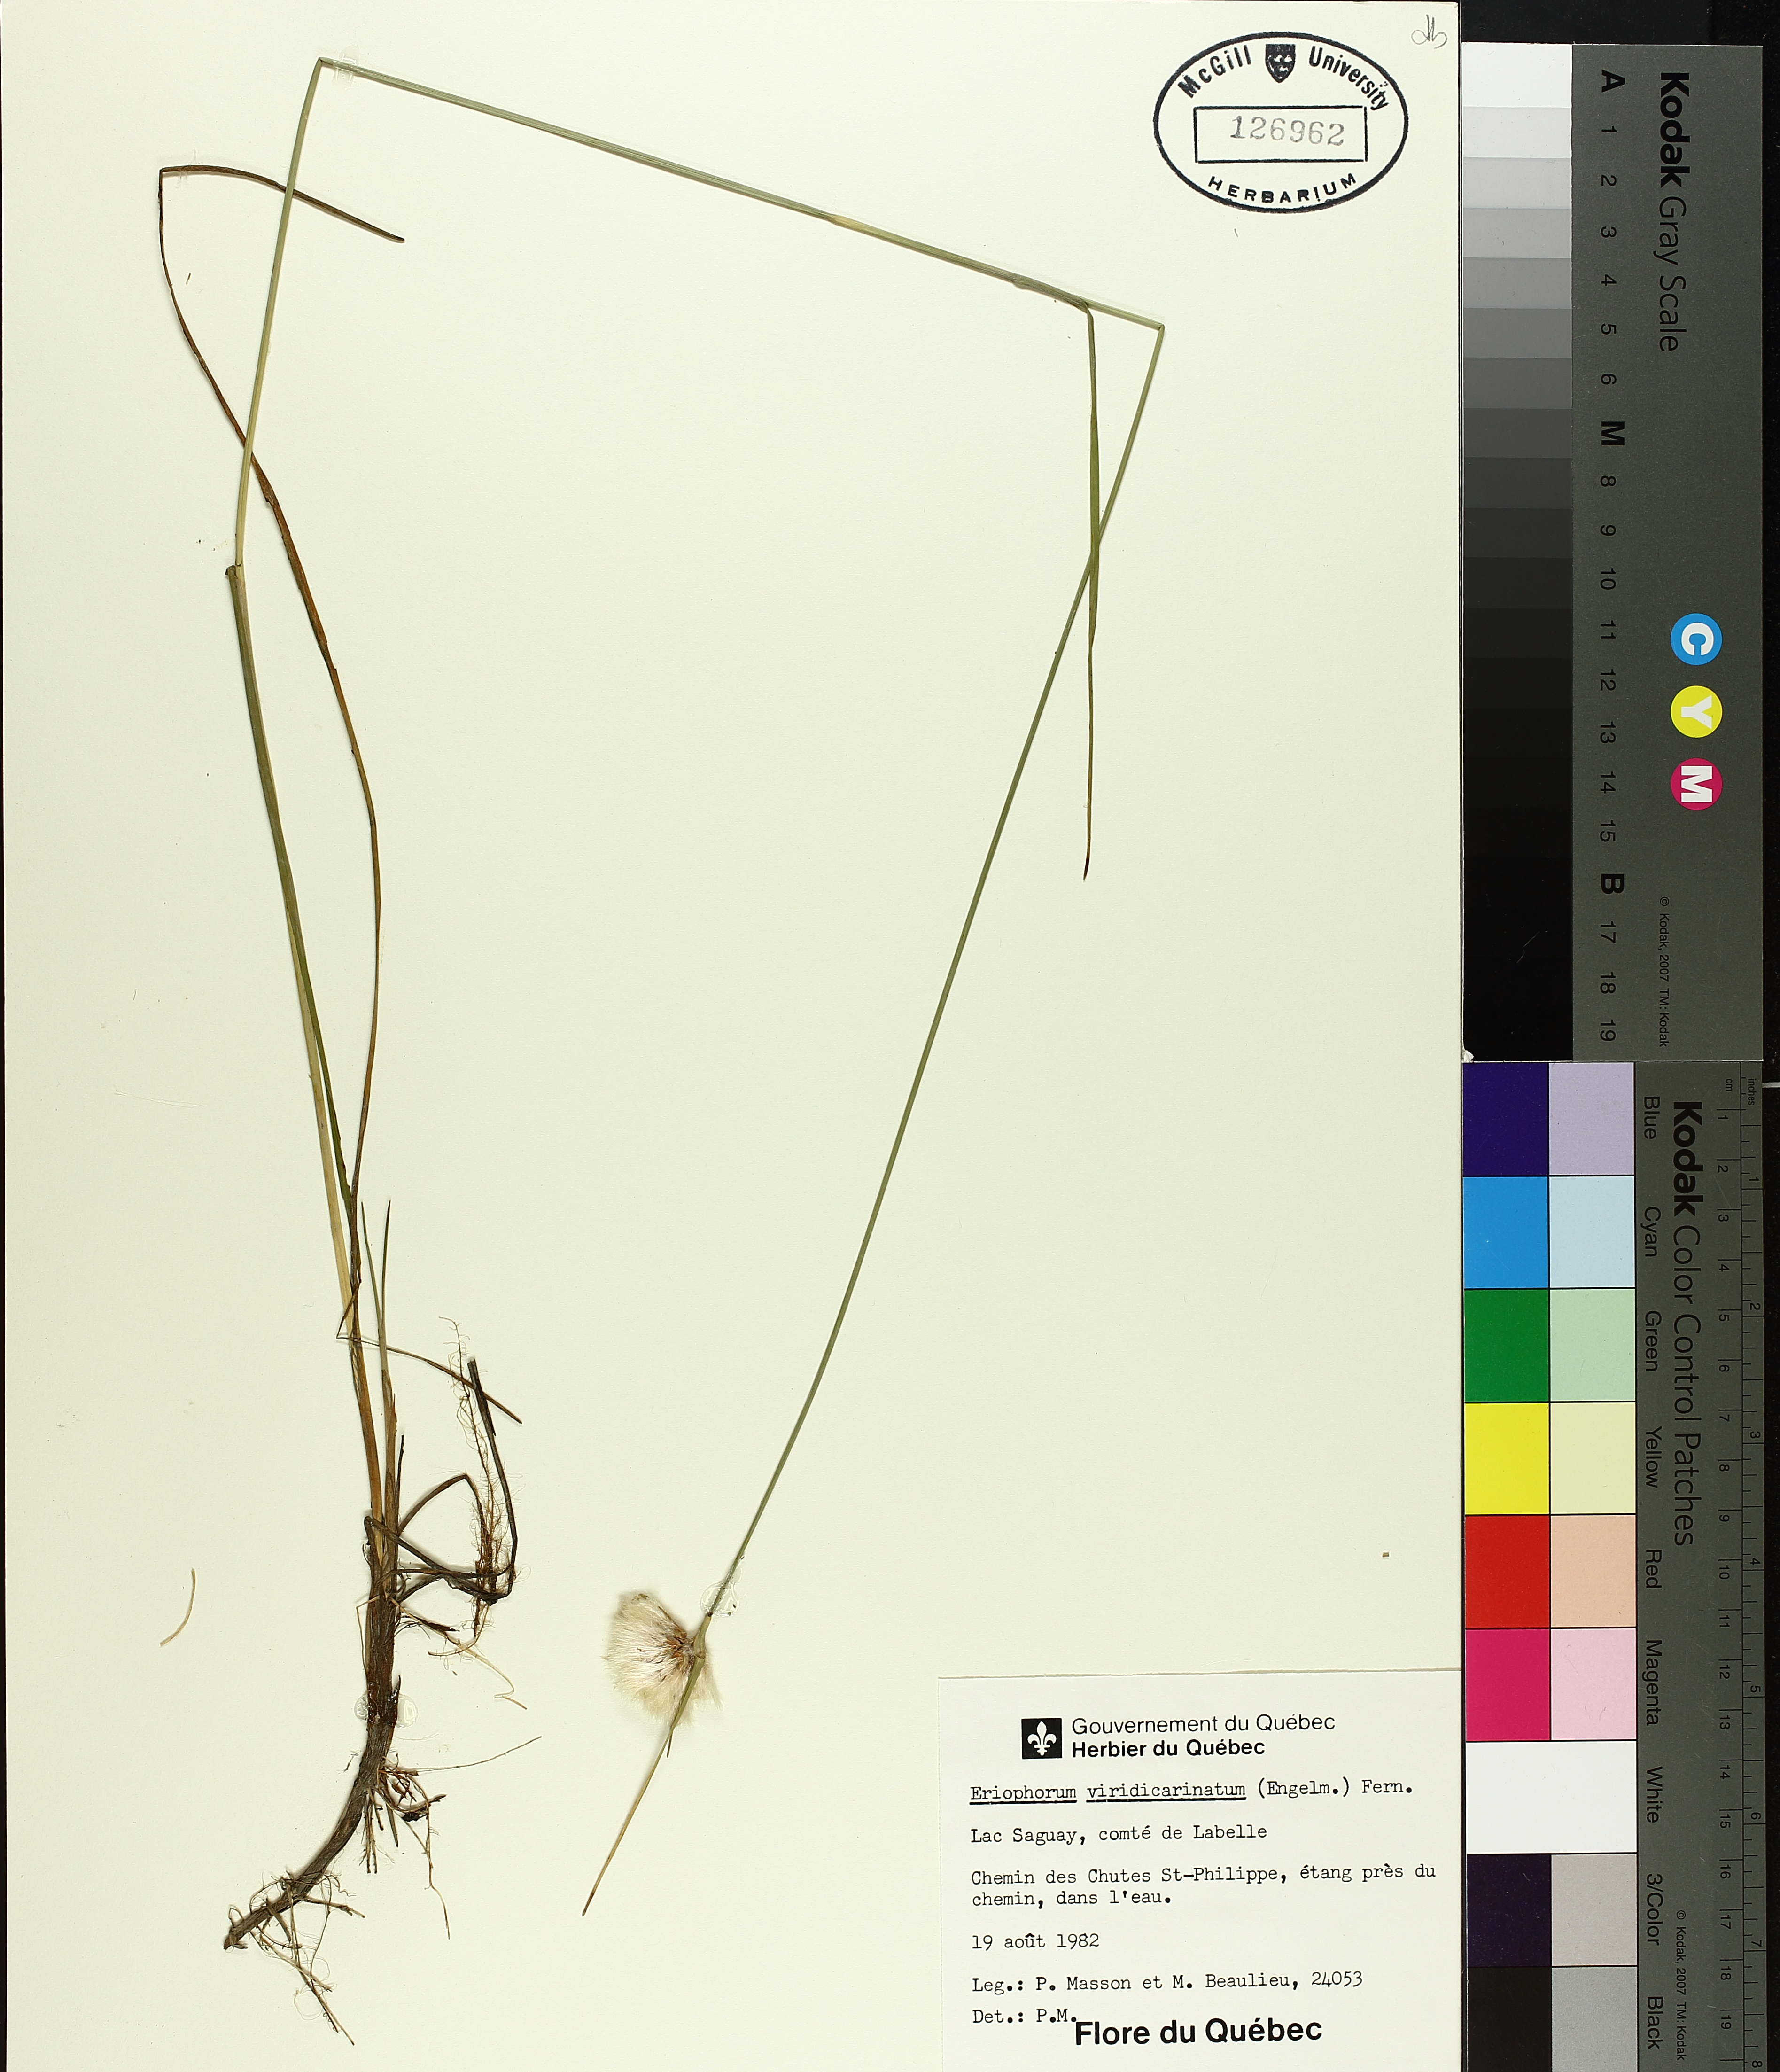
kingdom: Plantae
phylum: Tracheophyta
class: Liliopsida
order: Poales
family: Cyperaceae
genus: Eriophorum
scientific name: Eriophorum viridicarinatum
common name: Green-keeled cottongrass
